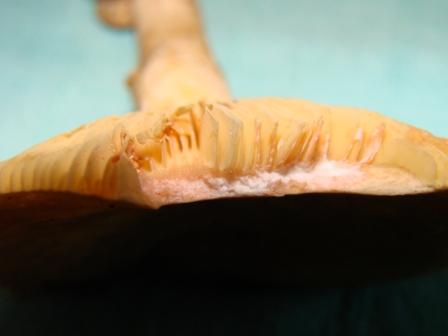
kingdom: Fungi
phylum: Basidiomycota
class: Agaricomycetes
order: Russulales
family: Russulaceae
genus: Lactarius
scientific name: Lactarius acris
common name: rosamælket mælkehat
